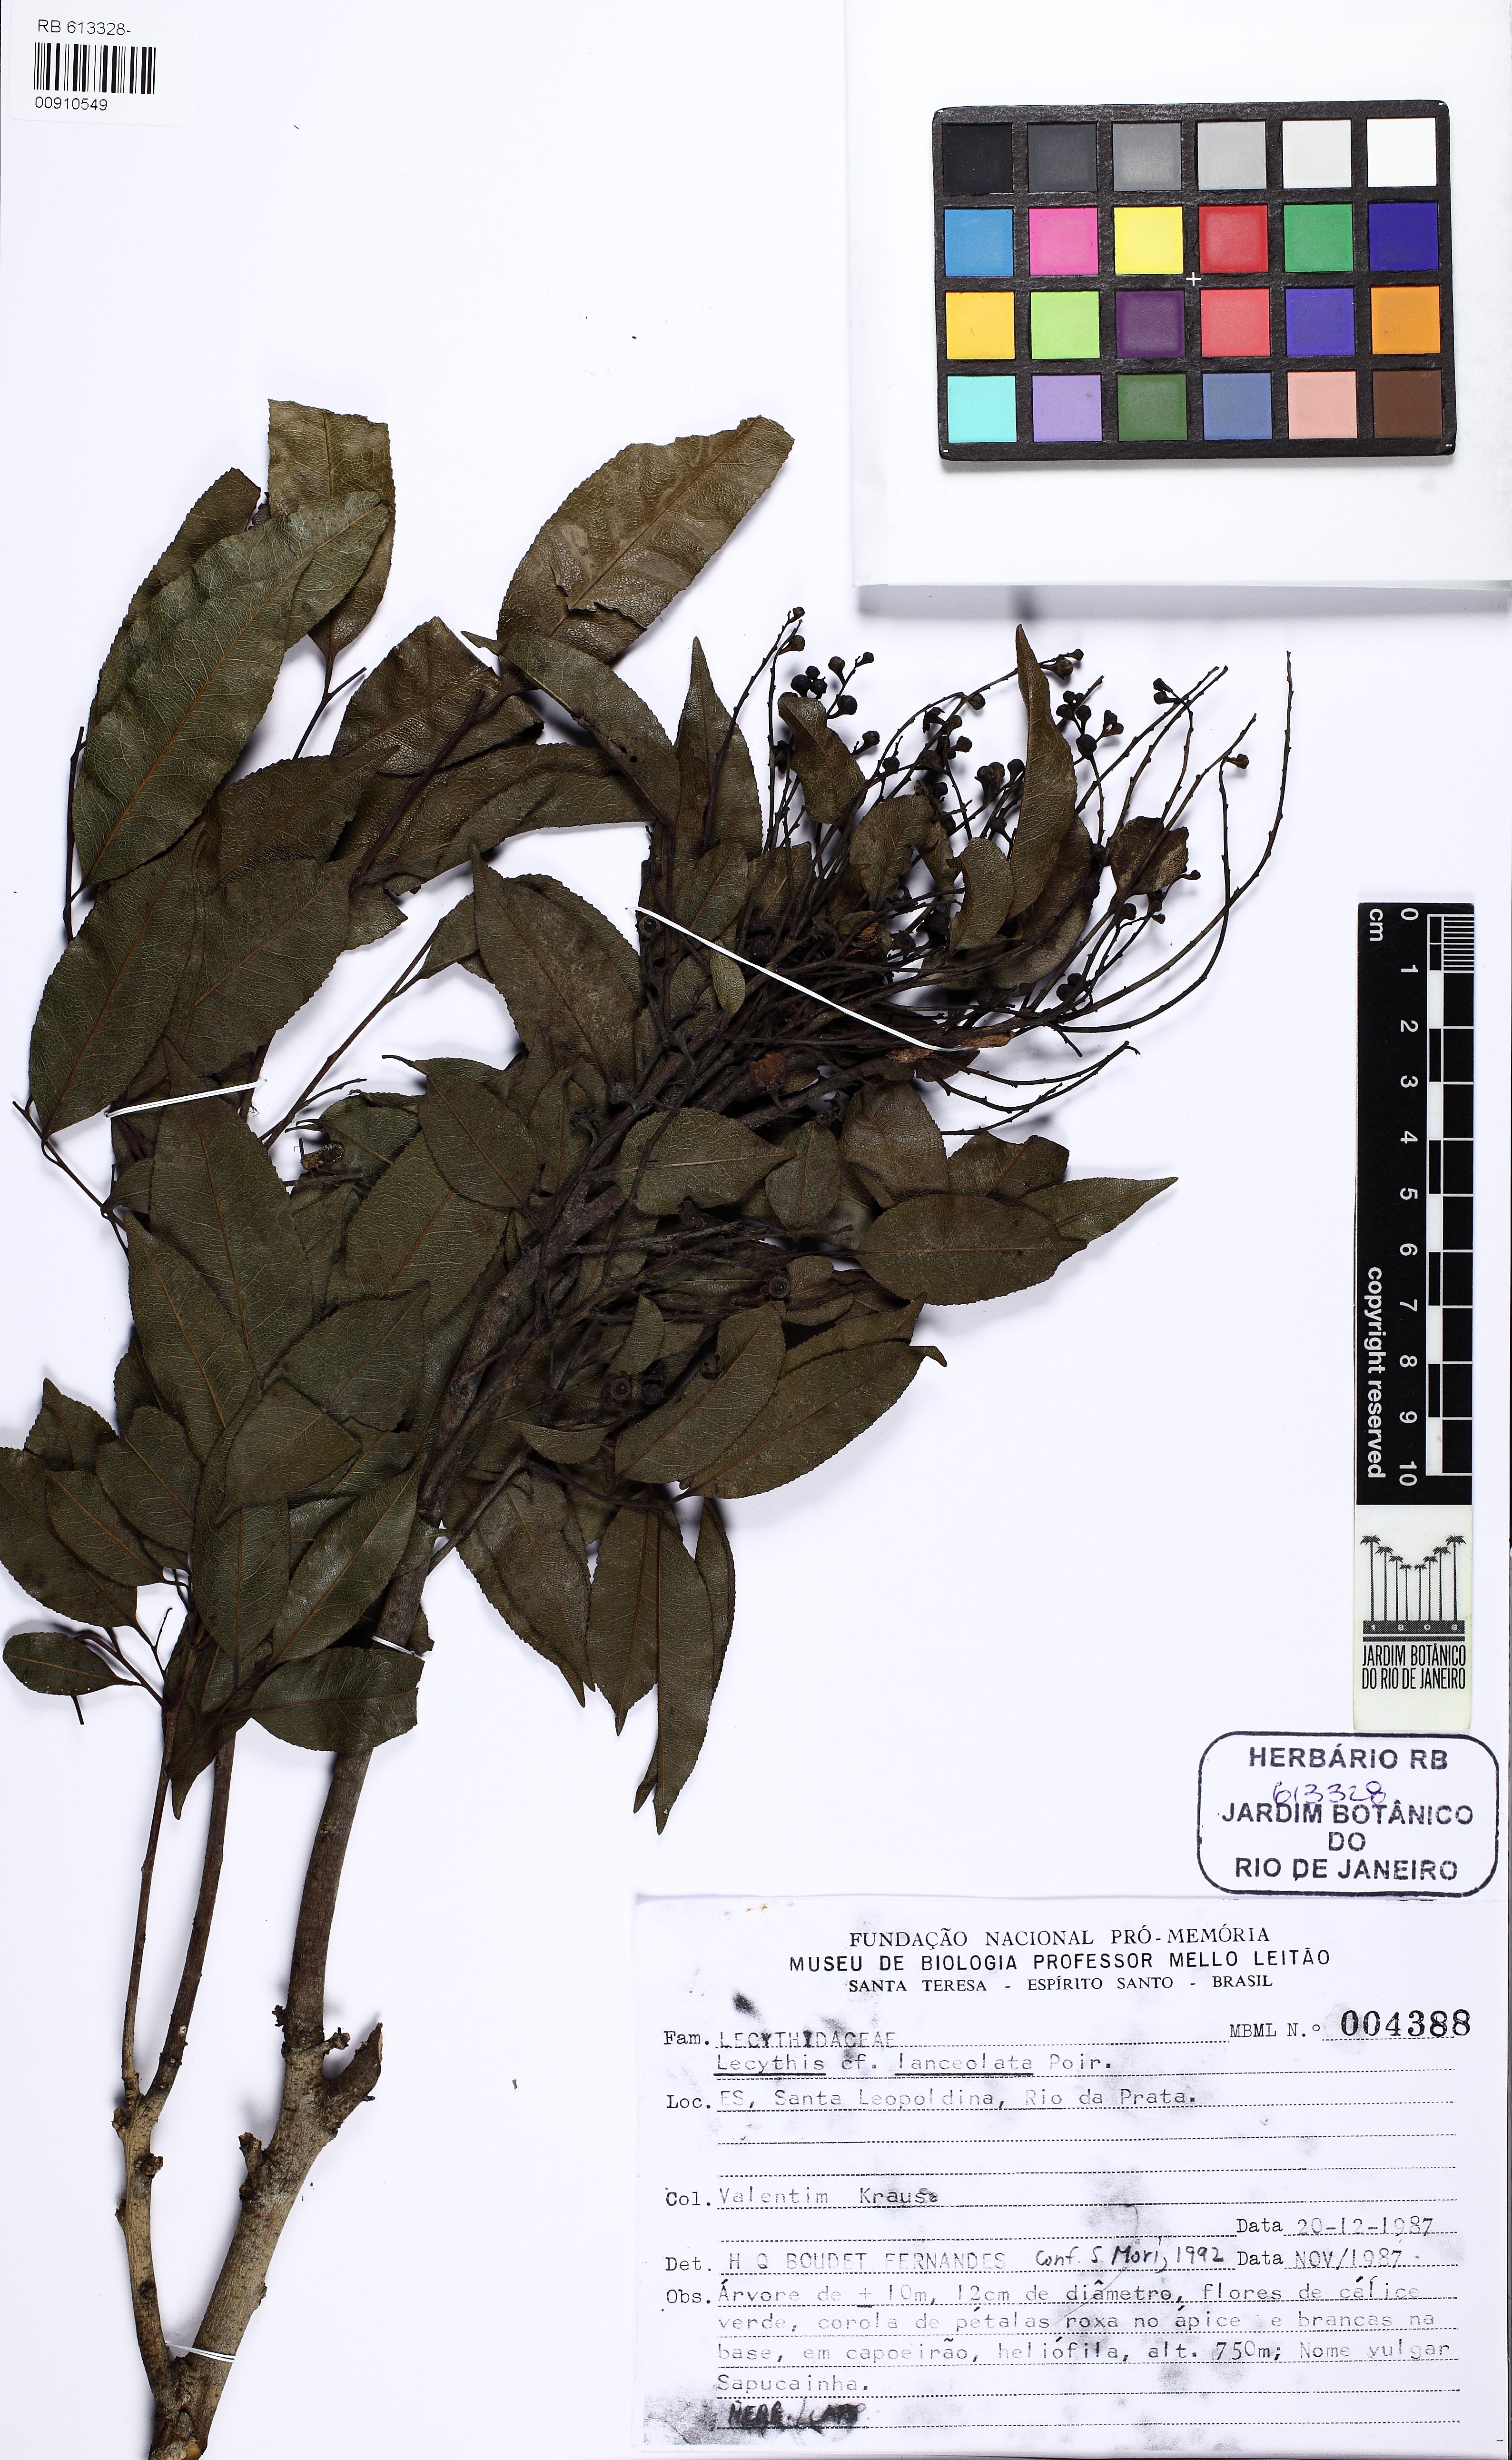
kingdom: Plantae
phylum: Tracheophyta
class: Magnoliopsida
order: Ericales
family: Lecythidaceae
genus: Lecythis
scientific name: Lecythis lanceolata
